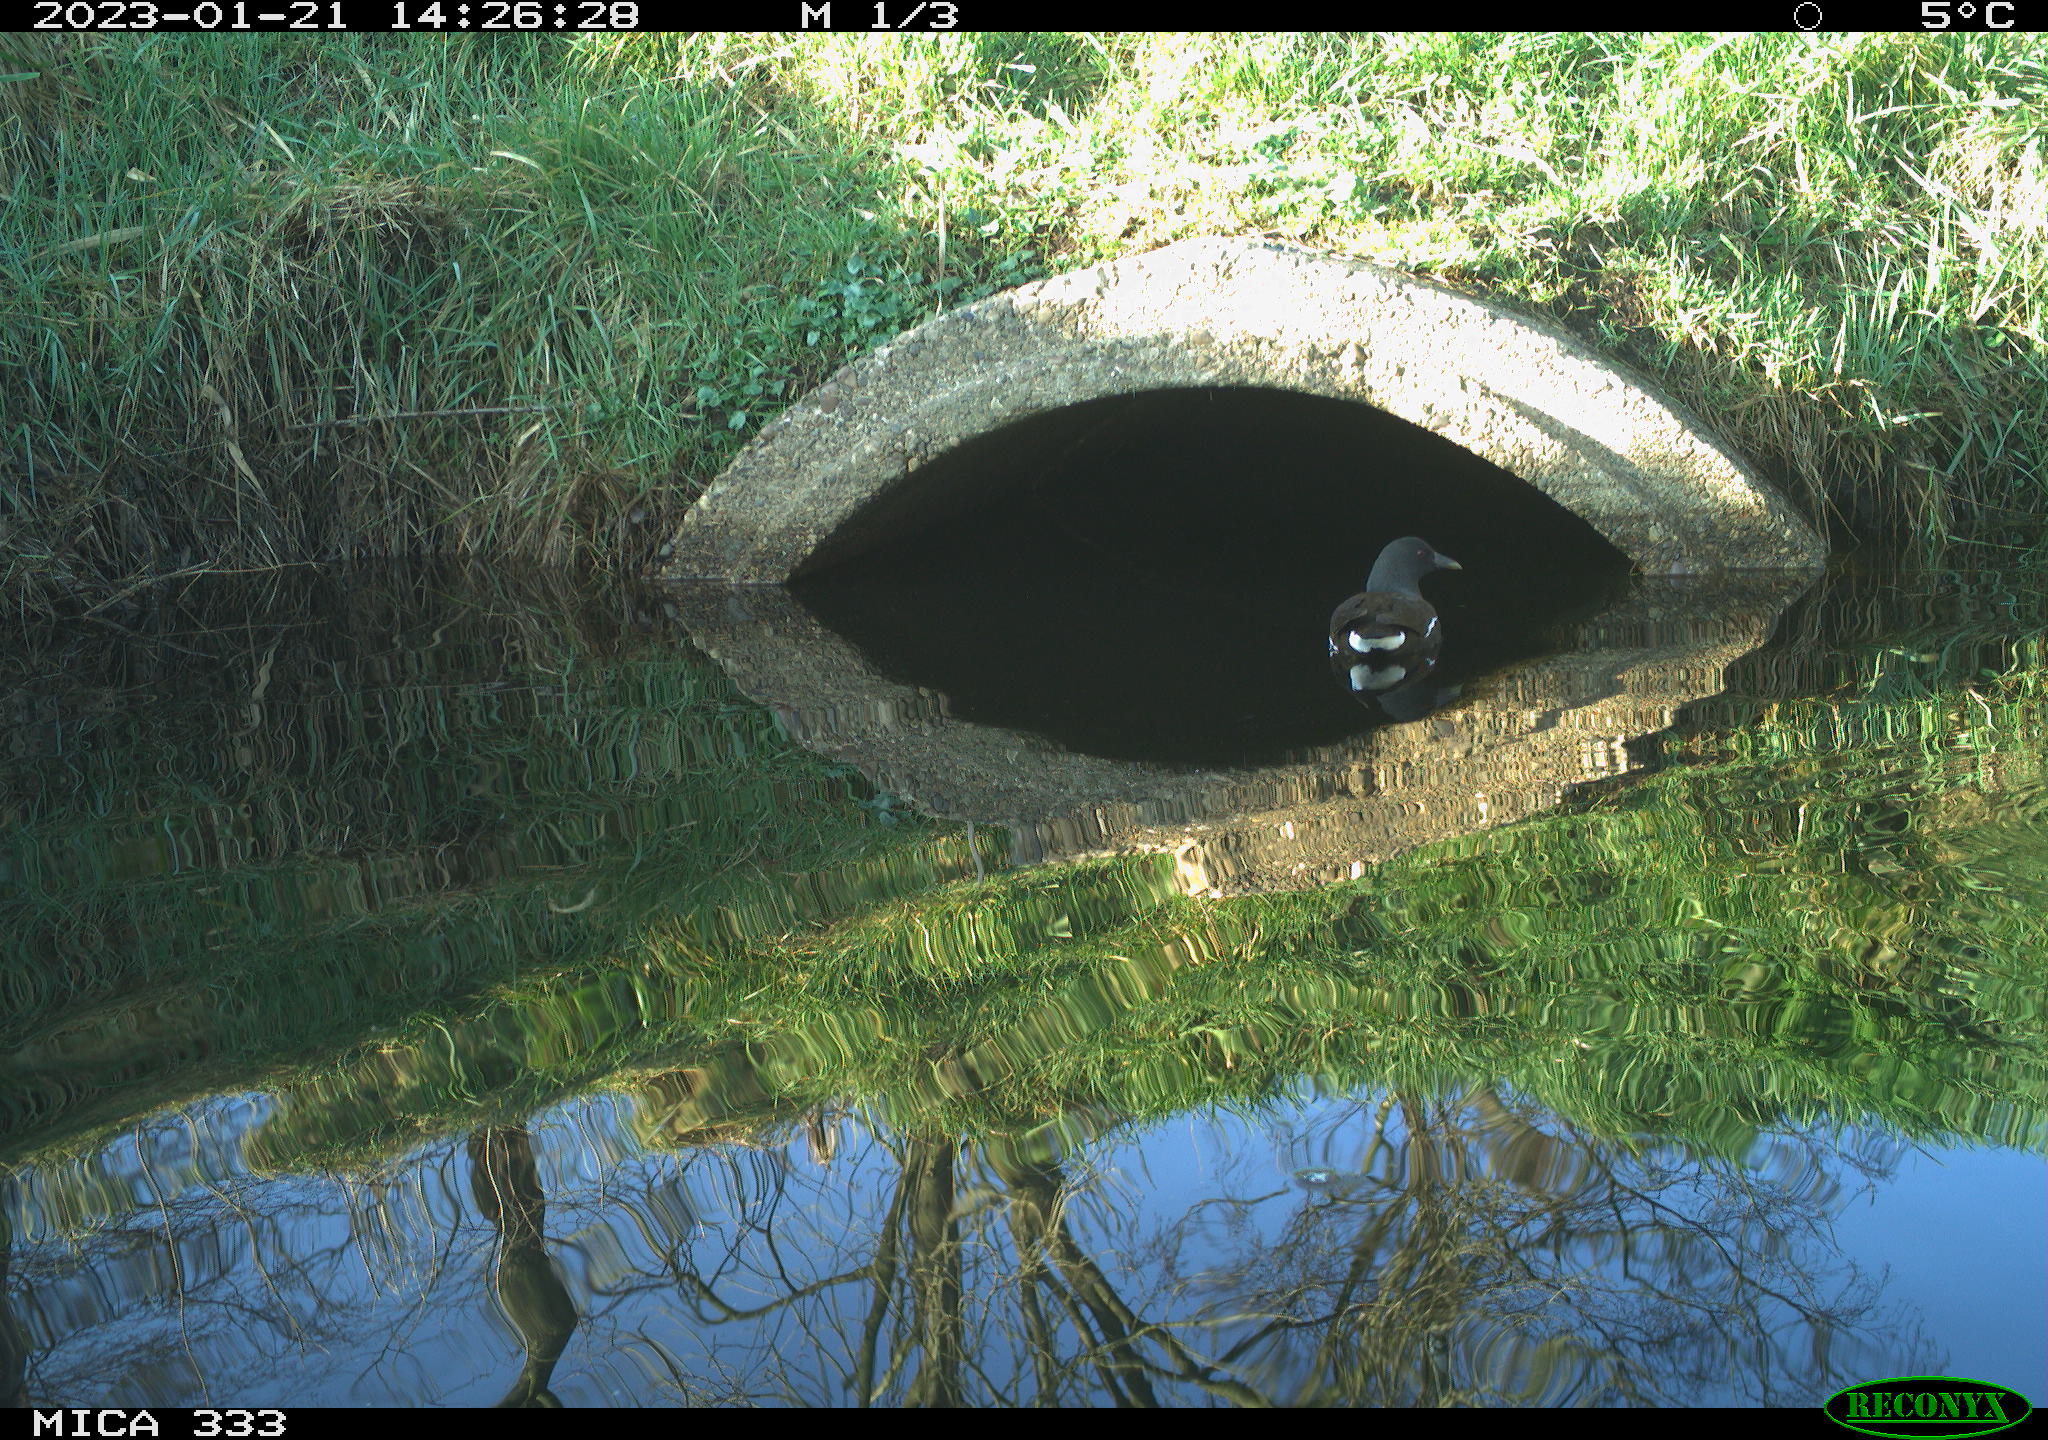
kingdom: Animalia
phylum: Chordata
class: Aves
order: Gruiformes
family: Rallidae
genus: Gallinula
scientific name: Gallinula chloropus
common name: Common moorhen
